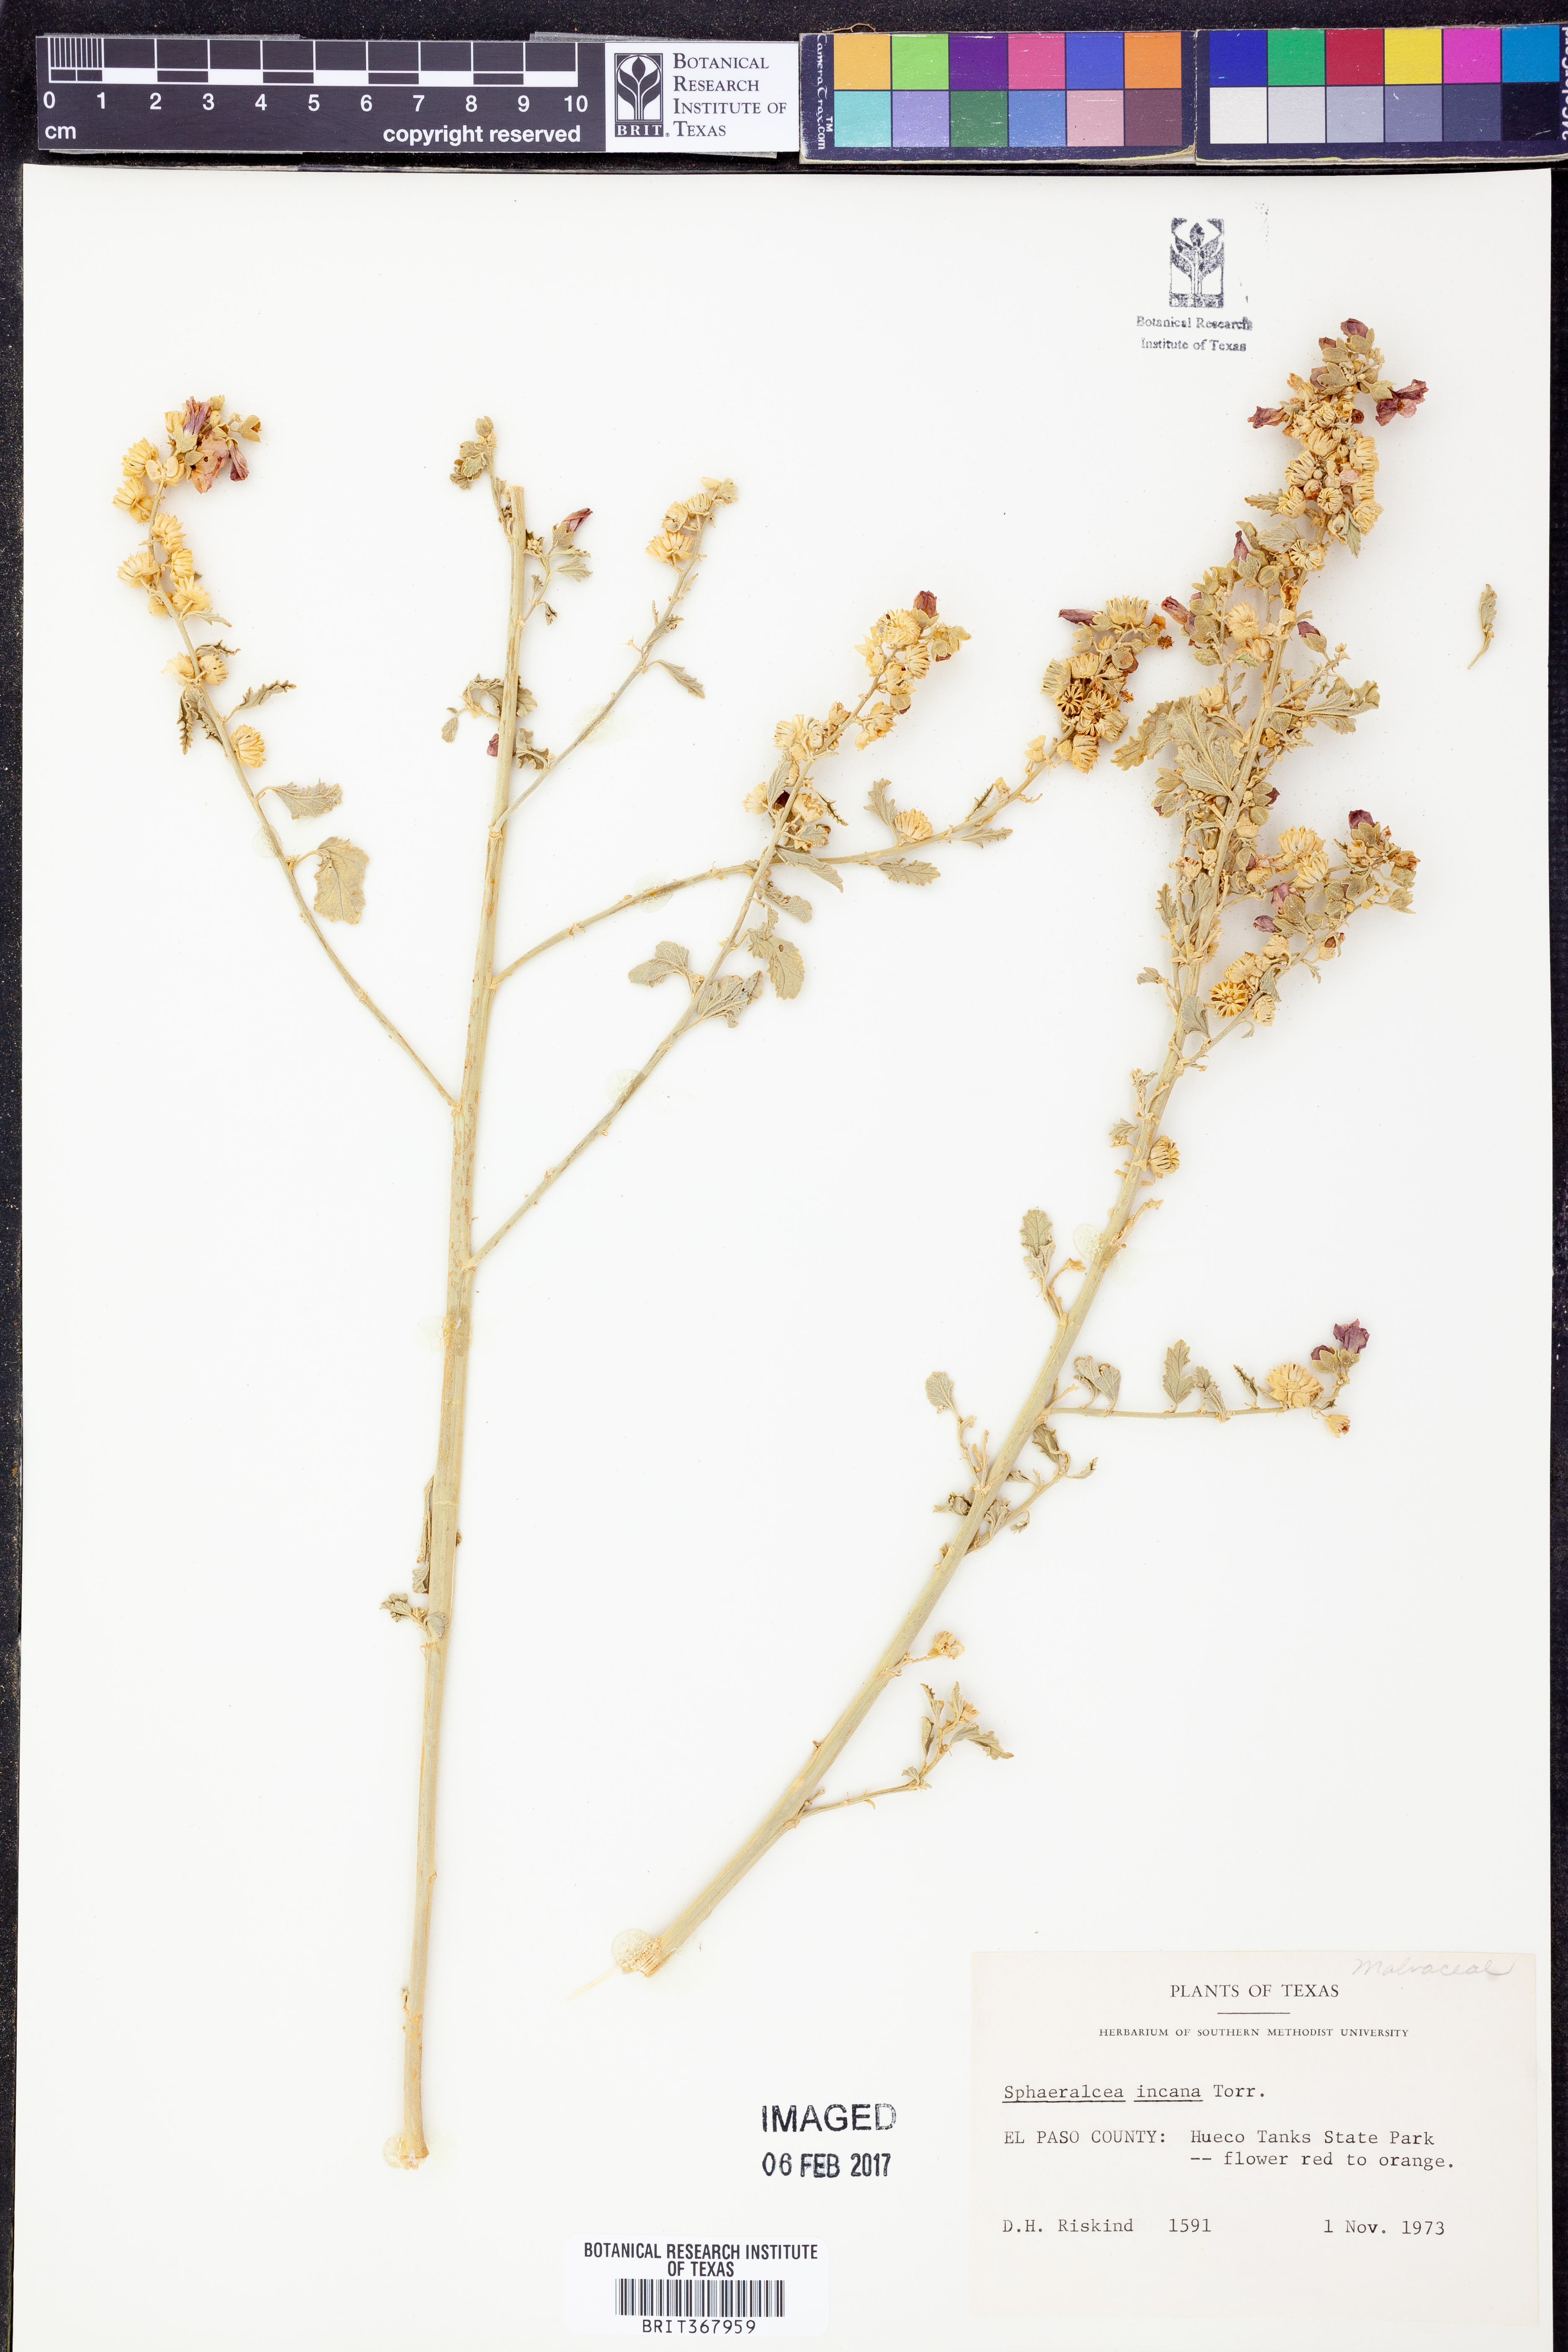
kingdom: Plantae
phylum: Tracheophyta
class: Magnoliopsida
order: Malvales
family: Malvaceae
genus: Sphaeralcea
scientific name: Sphaeralcea incana
